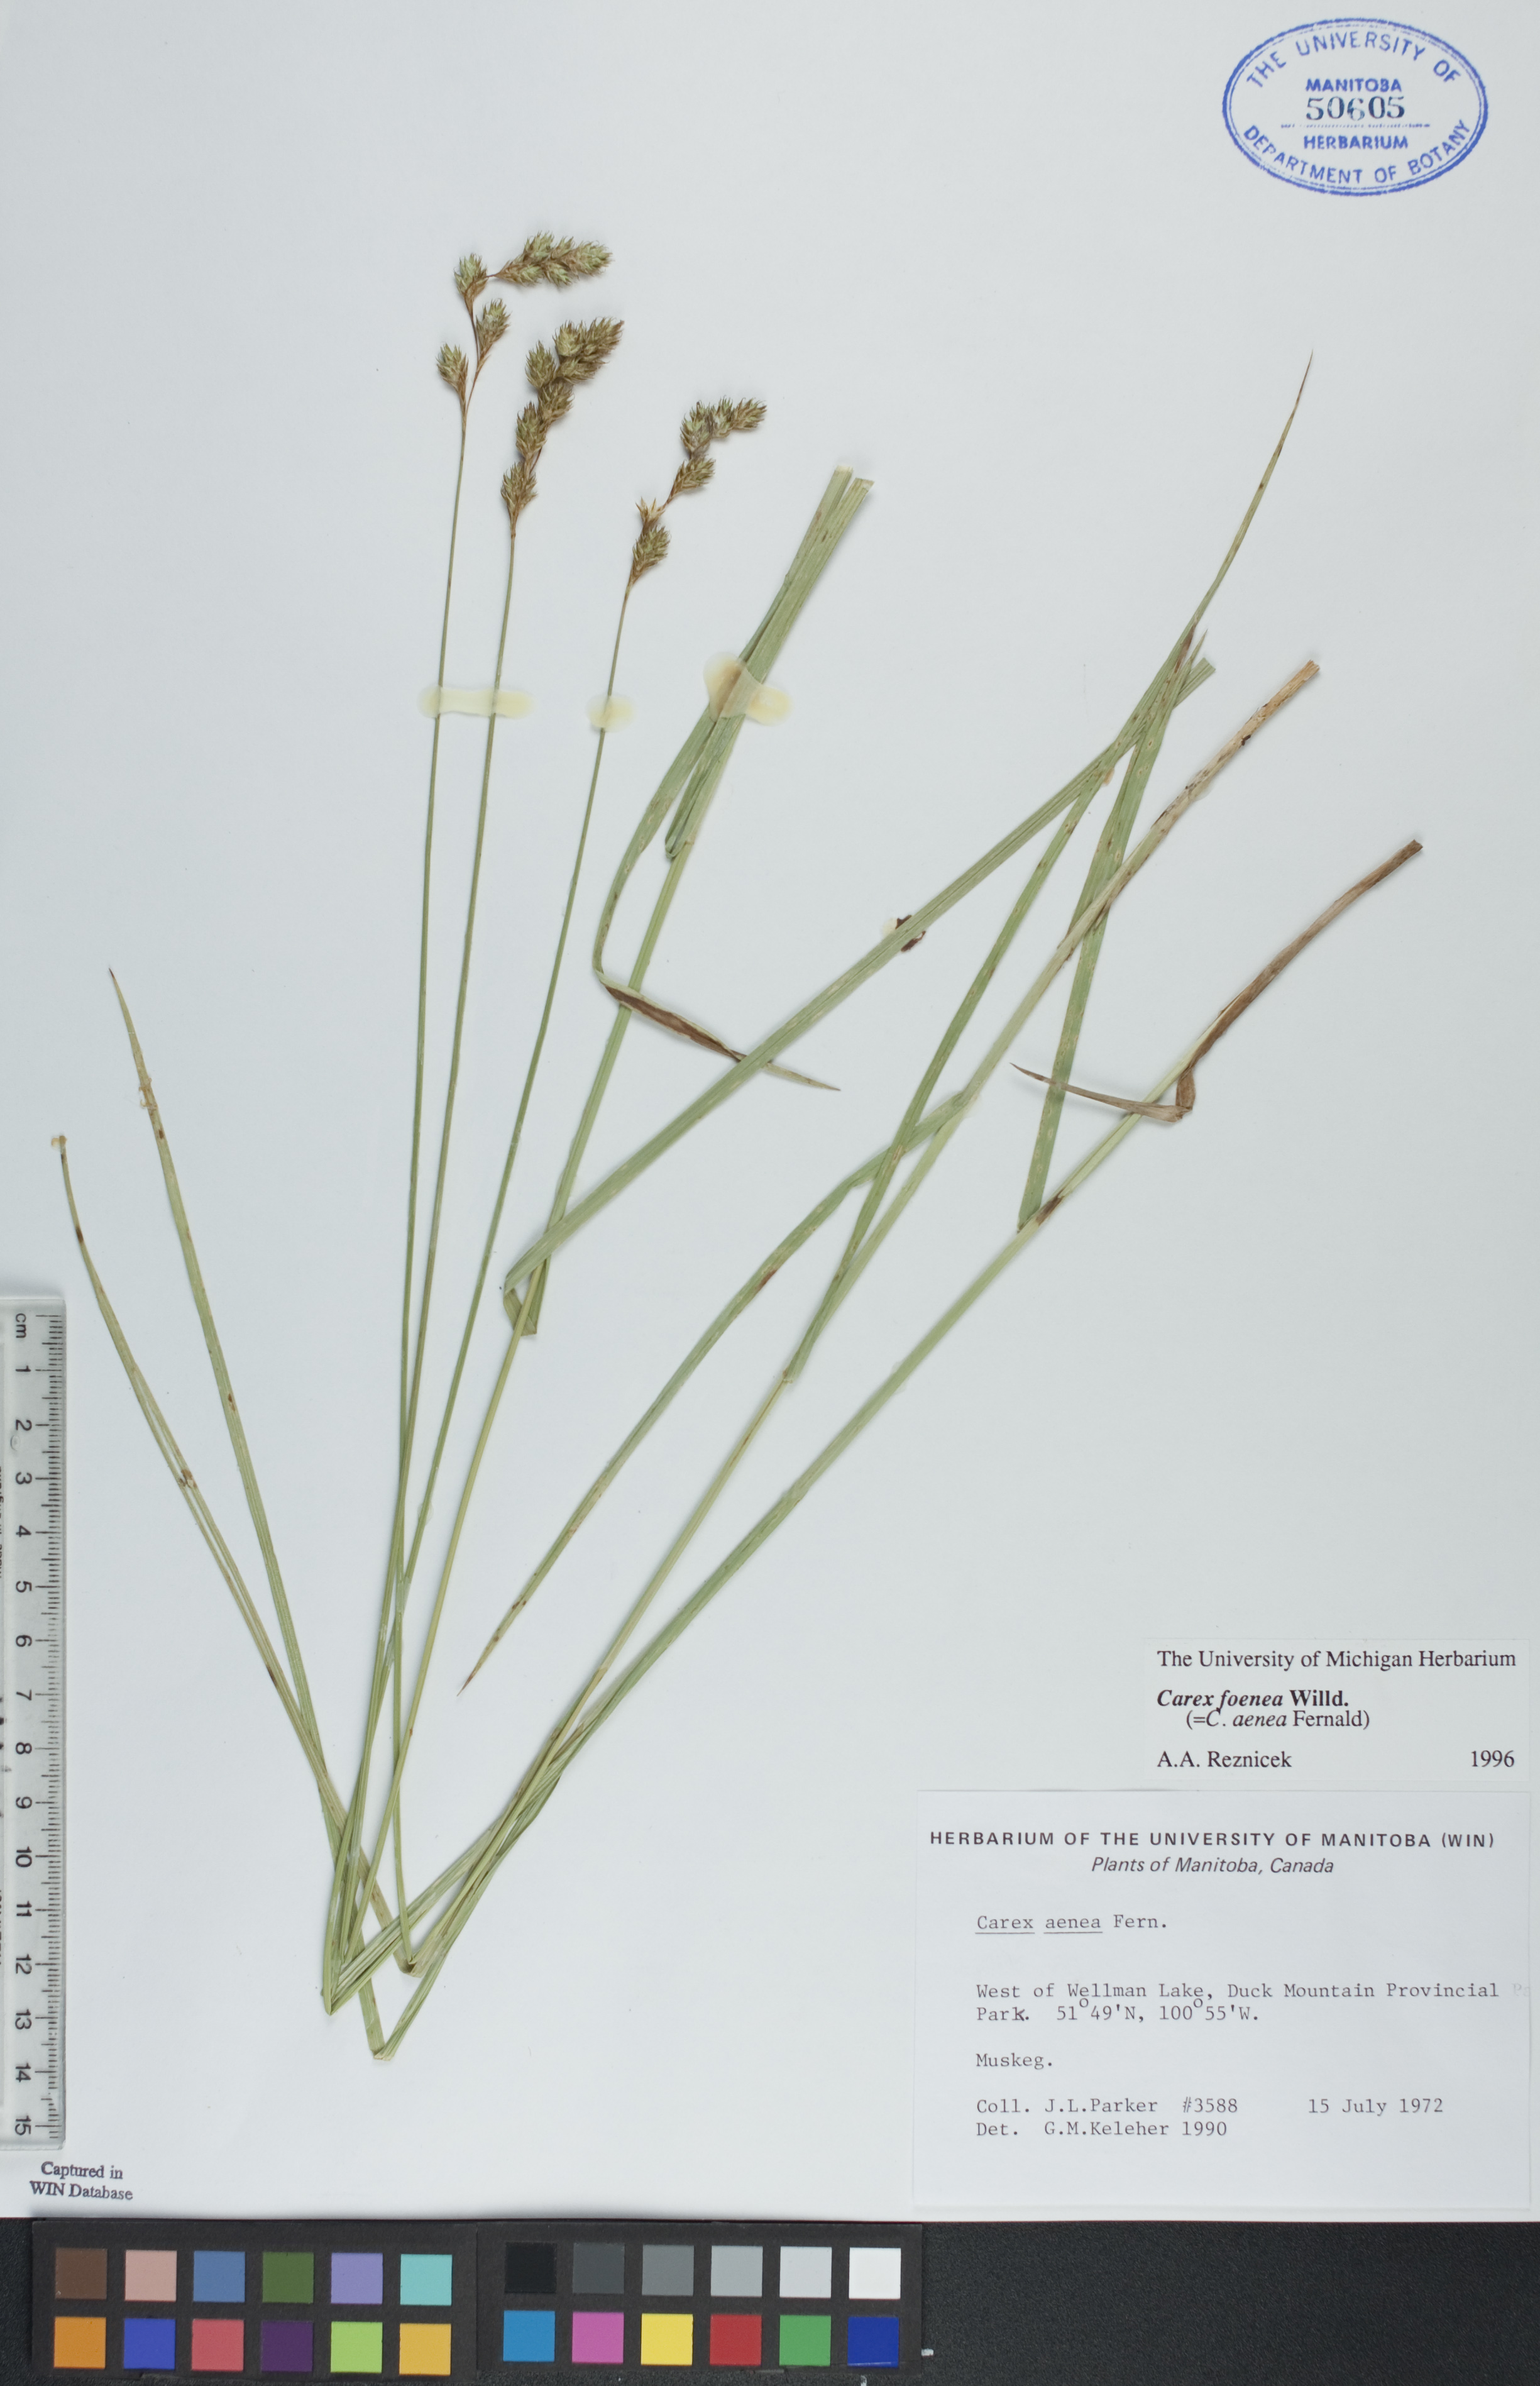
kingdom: Plantae
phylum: Tracheophyta
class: Liliopsida
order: Poales
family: Cyperaceae
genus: Carex
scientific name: Carex foenea
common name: Bronze sedge
